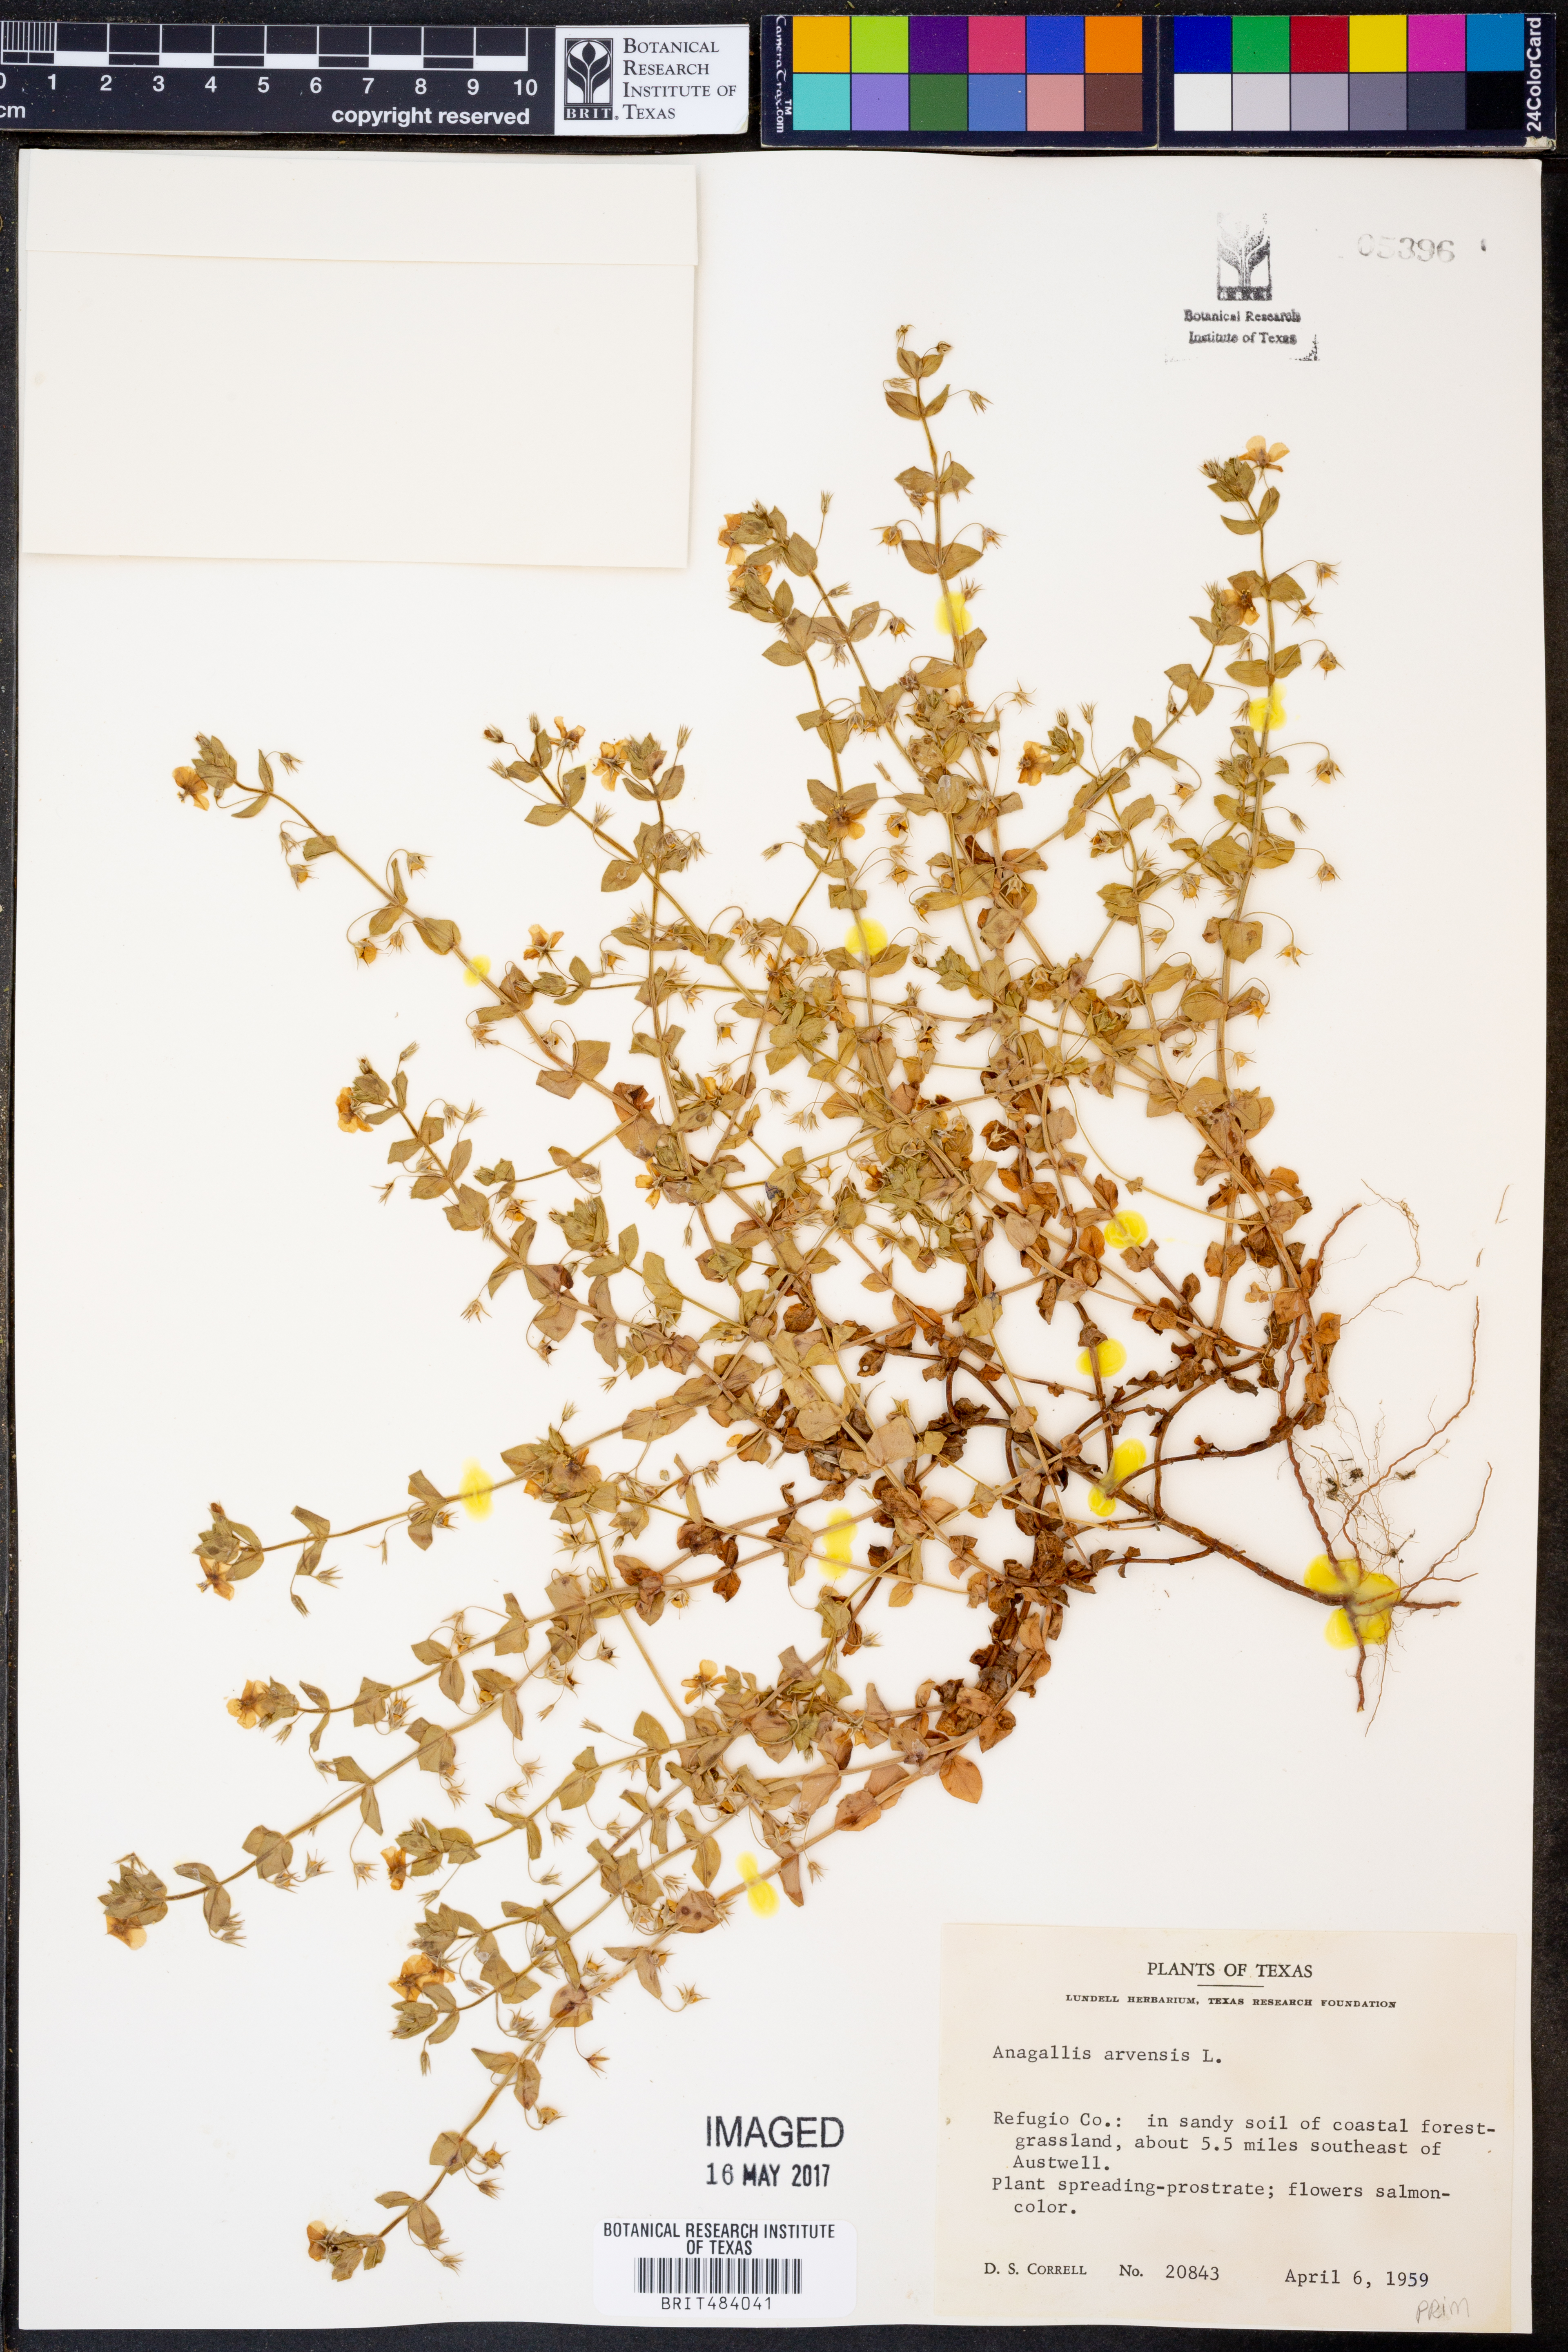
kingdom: Plantae
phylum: Tracheophyta
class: Magnoliopsida
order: Ericales
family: Primulaceae
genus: Lysimachia
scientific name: Lysimachia arvensis
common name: Scarlet pimpernel
